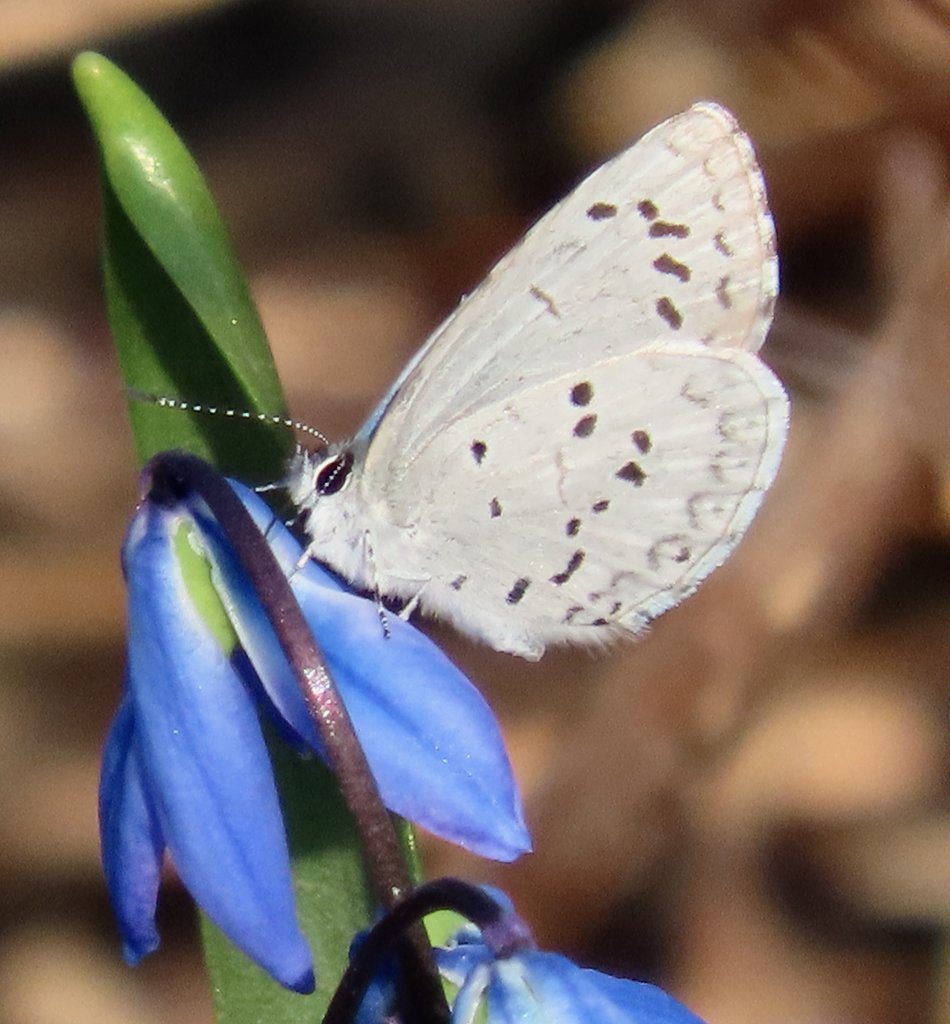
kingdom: Animalia
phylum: Arthropoda
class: Insecta
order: Lepidoptera
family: Lycaenidae
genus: Celastrina
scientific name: Celastrina ladon
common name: Spring Azure
